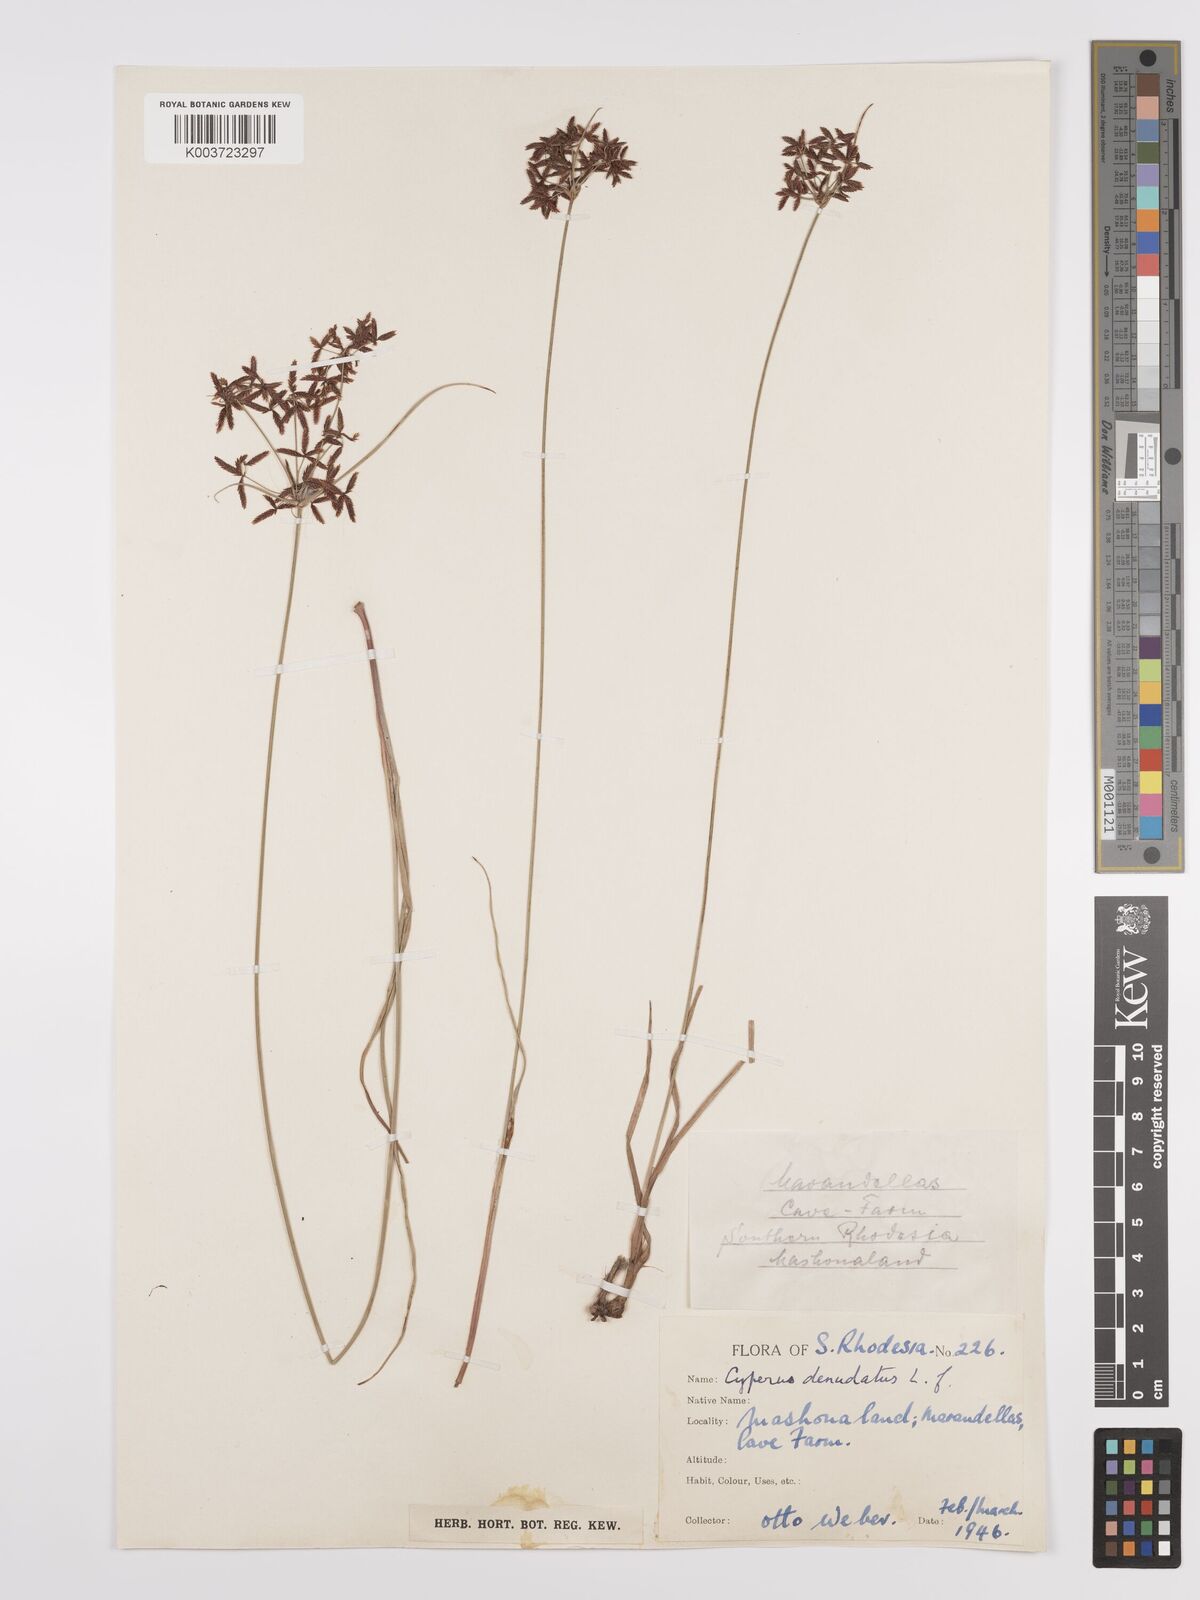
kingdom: Plantae
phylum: Tracheophyta
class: Liliopsida
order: Poales
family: Cyperaceae
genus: Cyperus
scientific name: Cyperus denudatus
